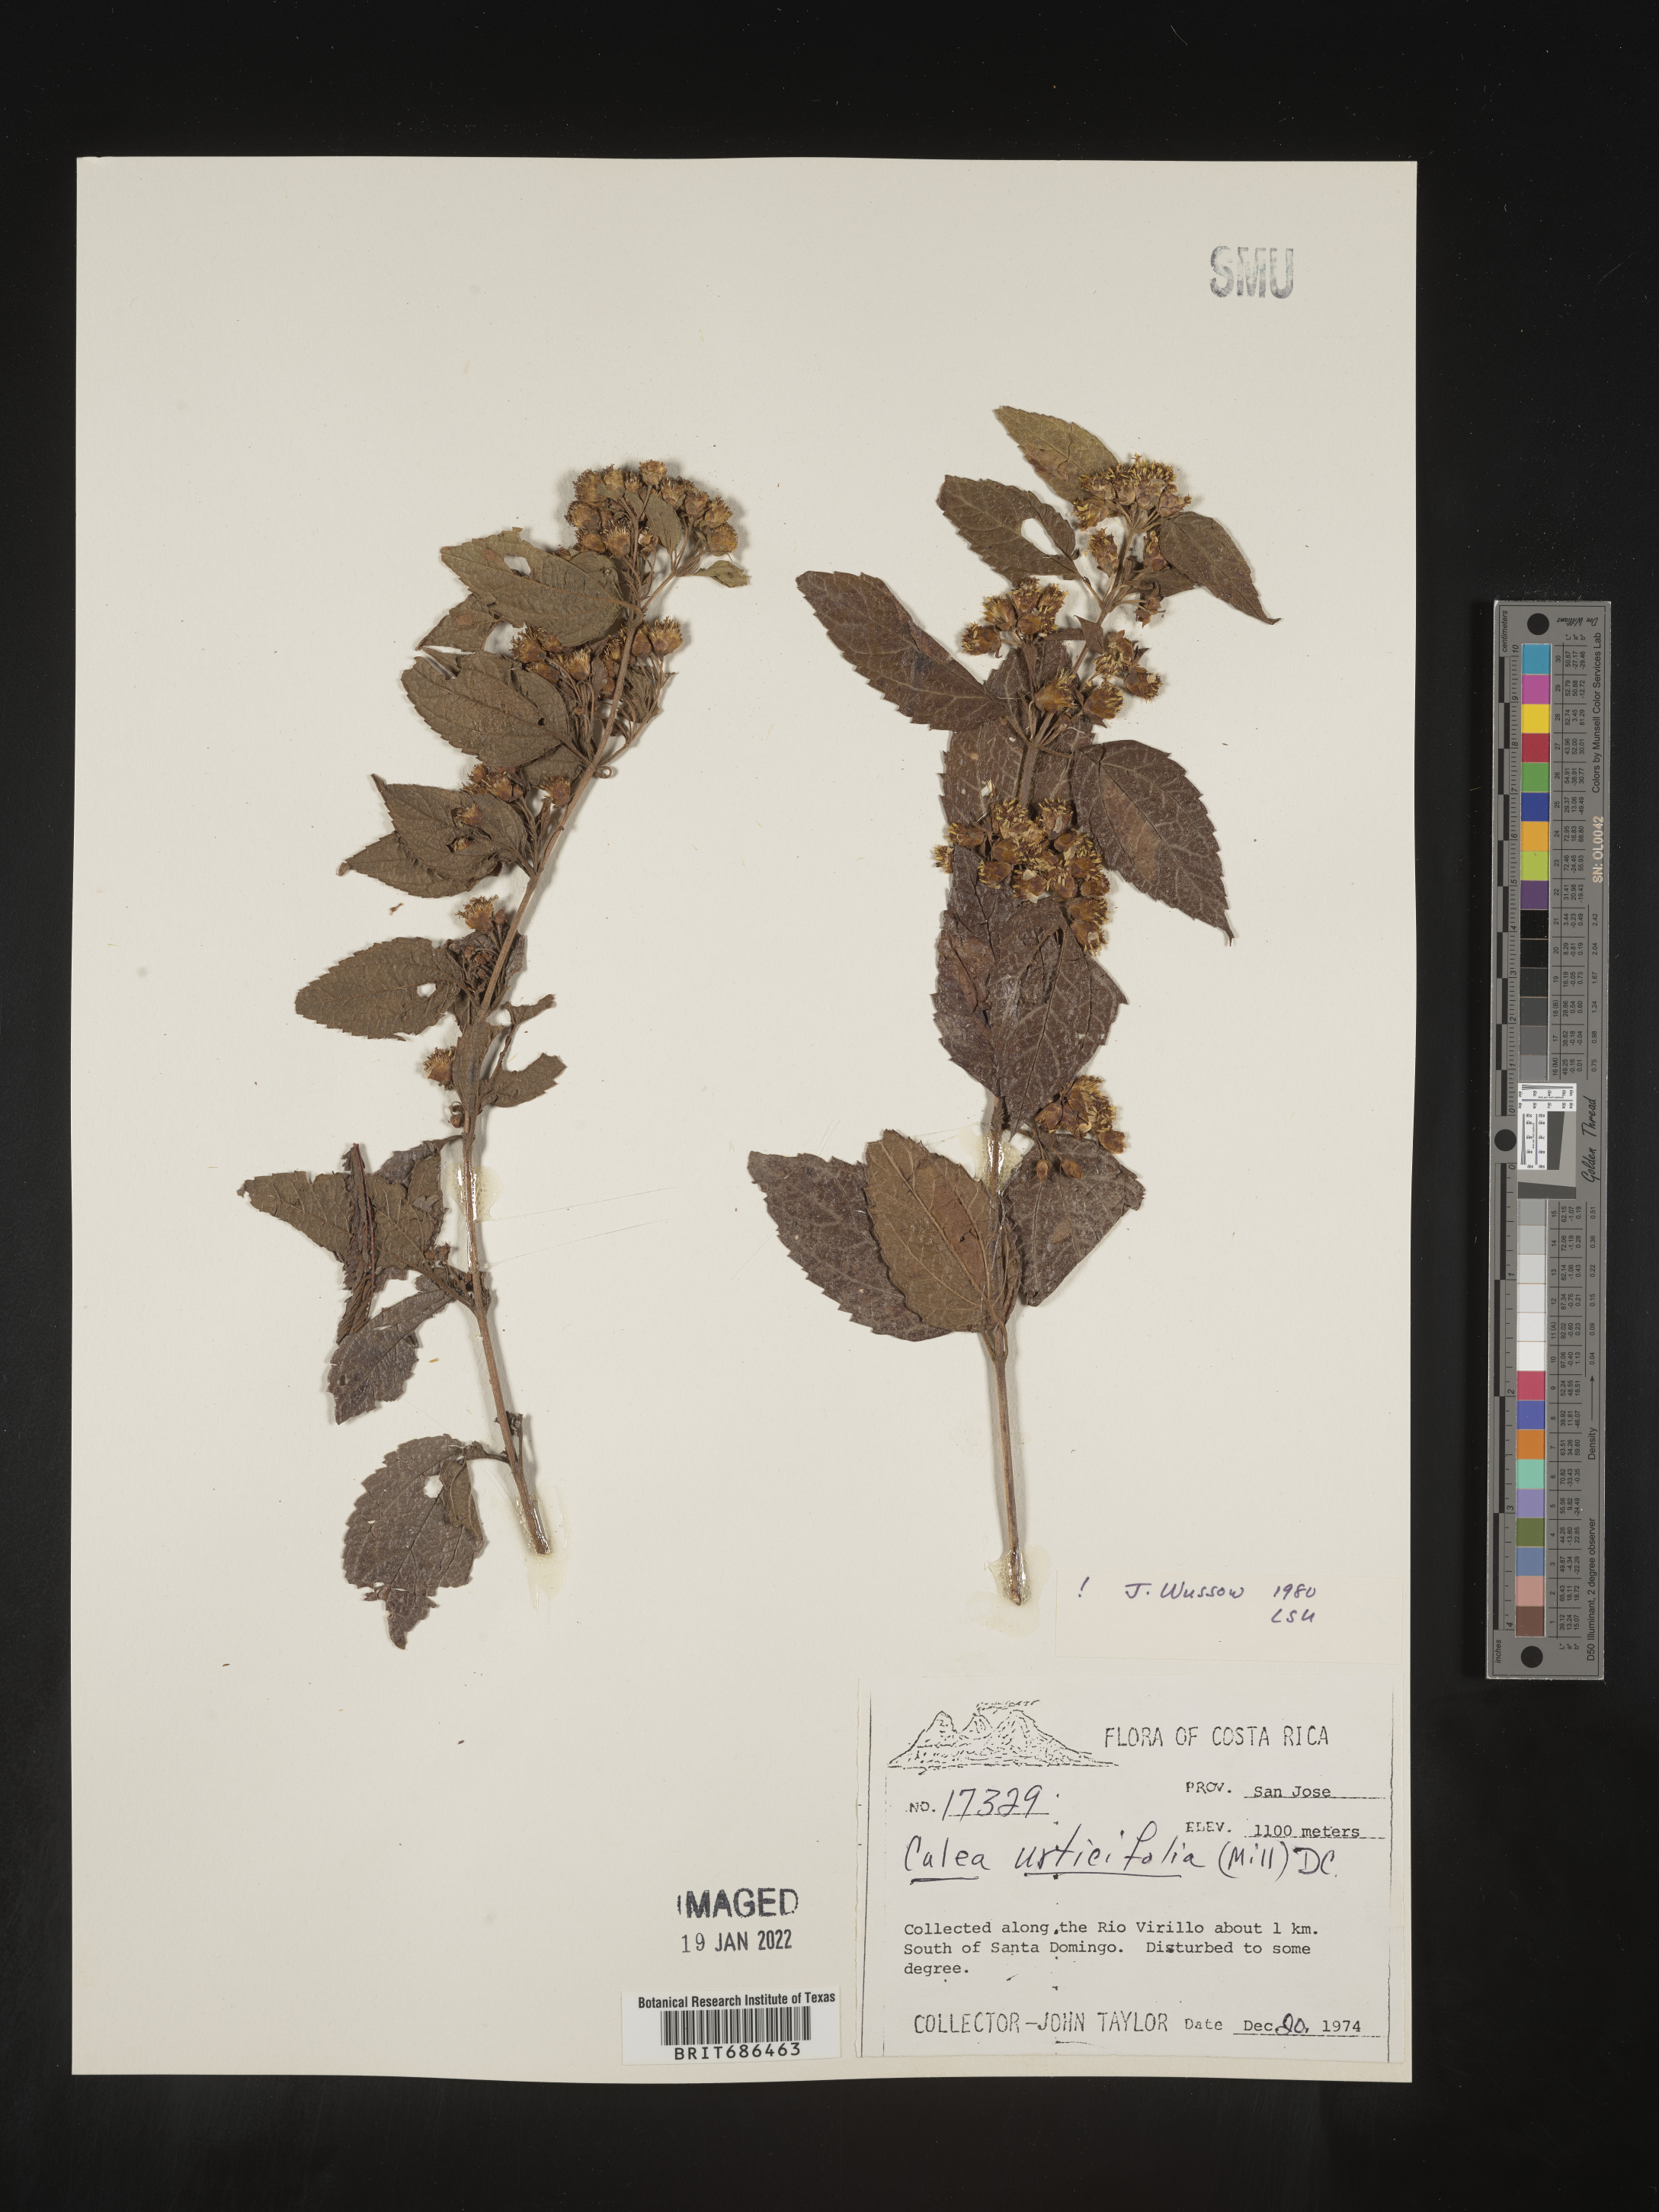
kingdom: Plantae
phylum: Tracheophyta
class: Magnoliopsida
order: Asterales
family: Asteraceae
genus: Calea
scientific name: Calea
